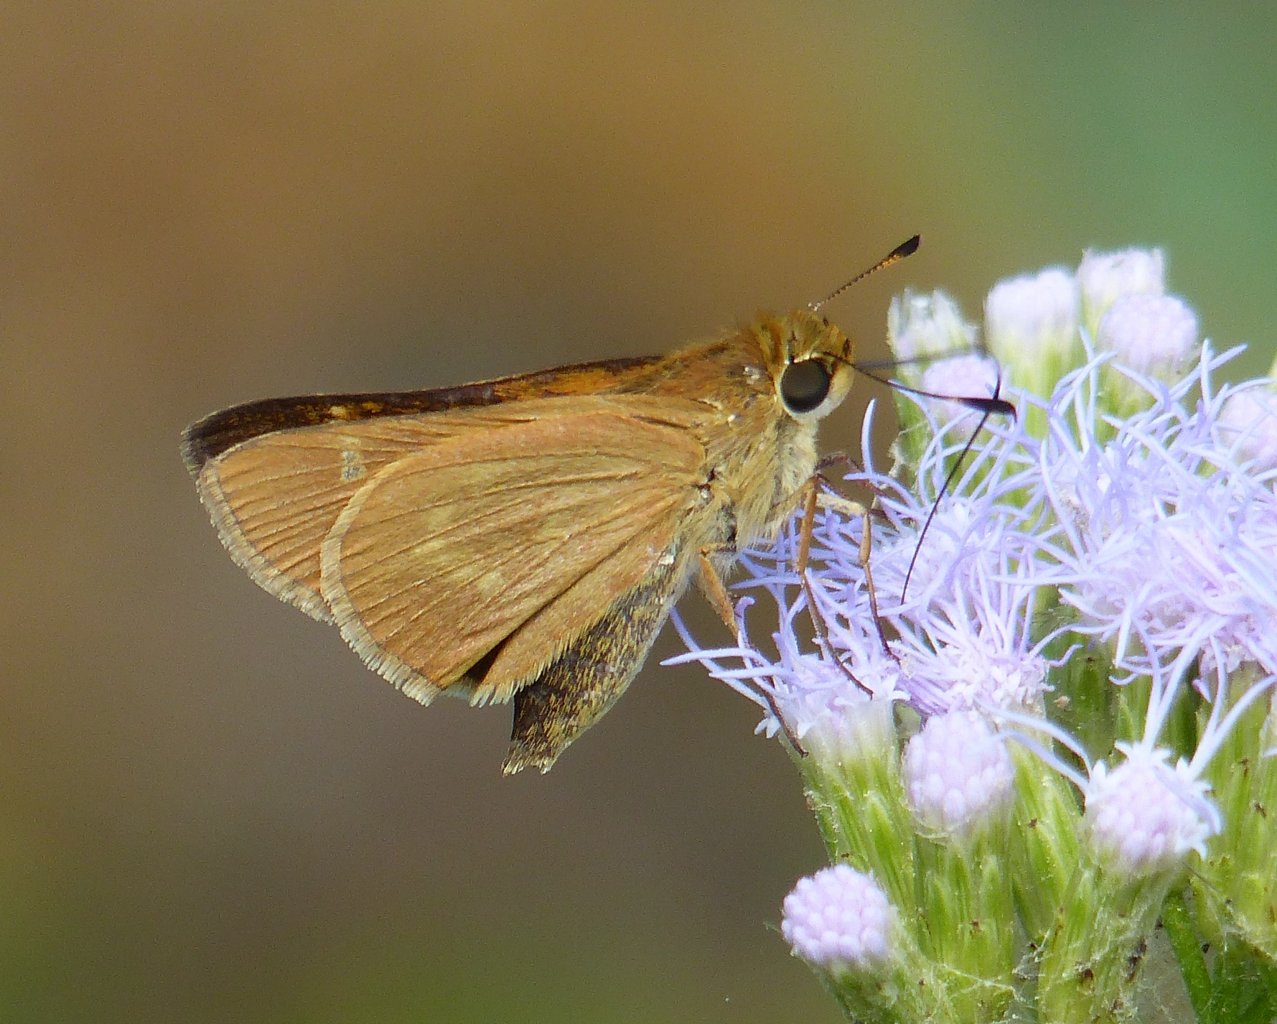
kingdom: Animalia
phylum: Arthropoda
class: Insecta
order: Lepidoptera
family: Hesperiidae
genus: Mellana
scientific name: Mellana eulogius
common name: Common Mellana
